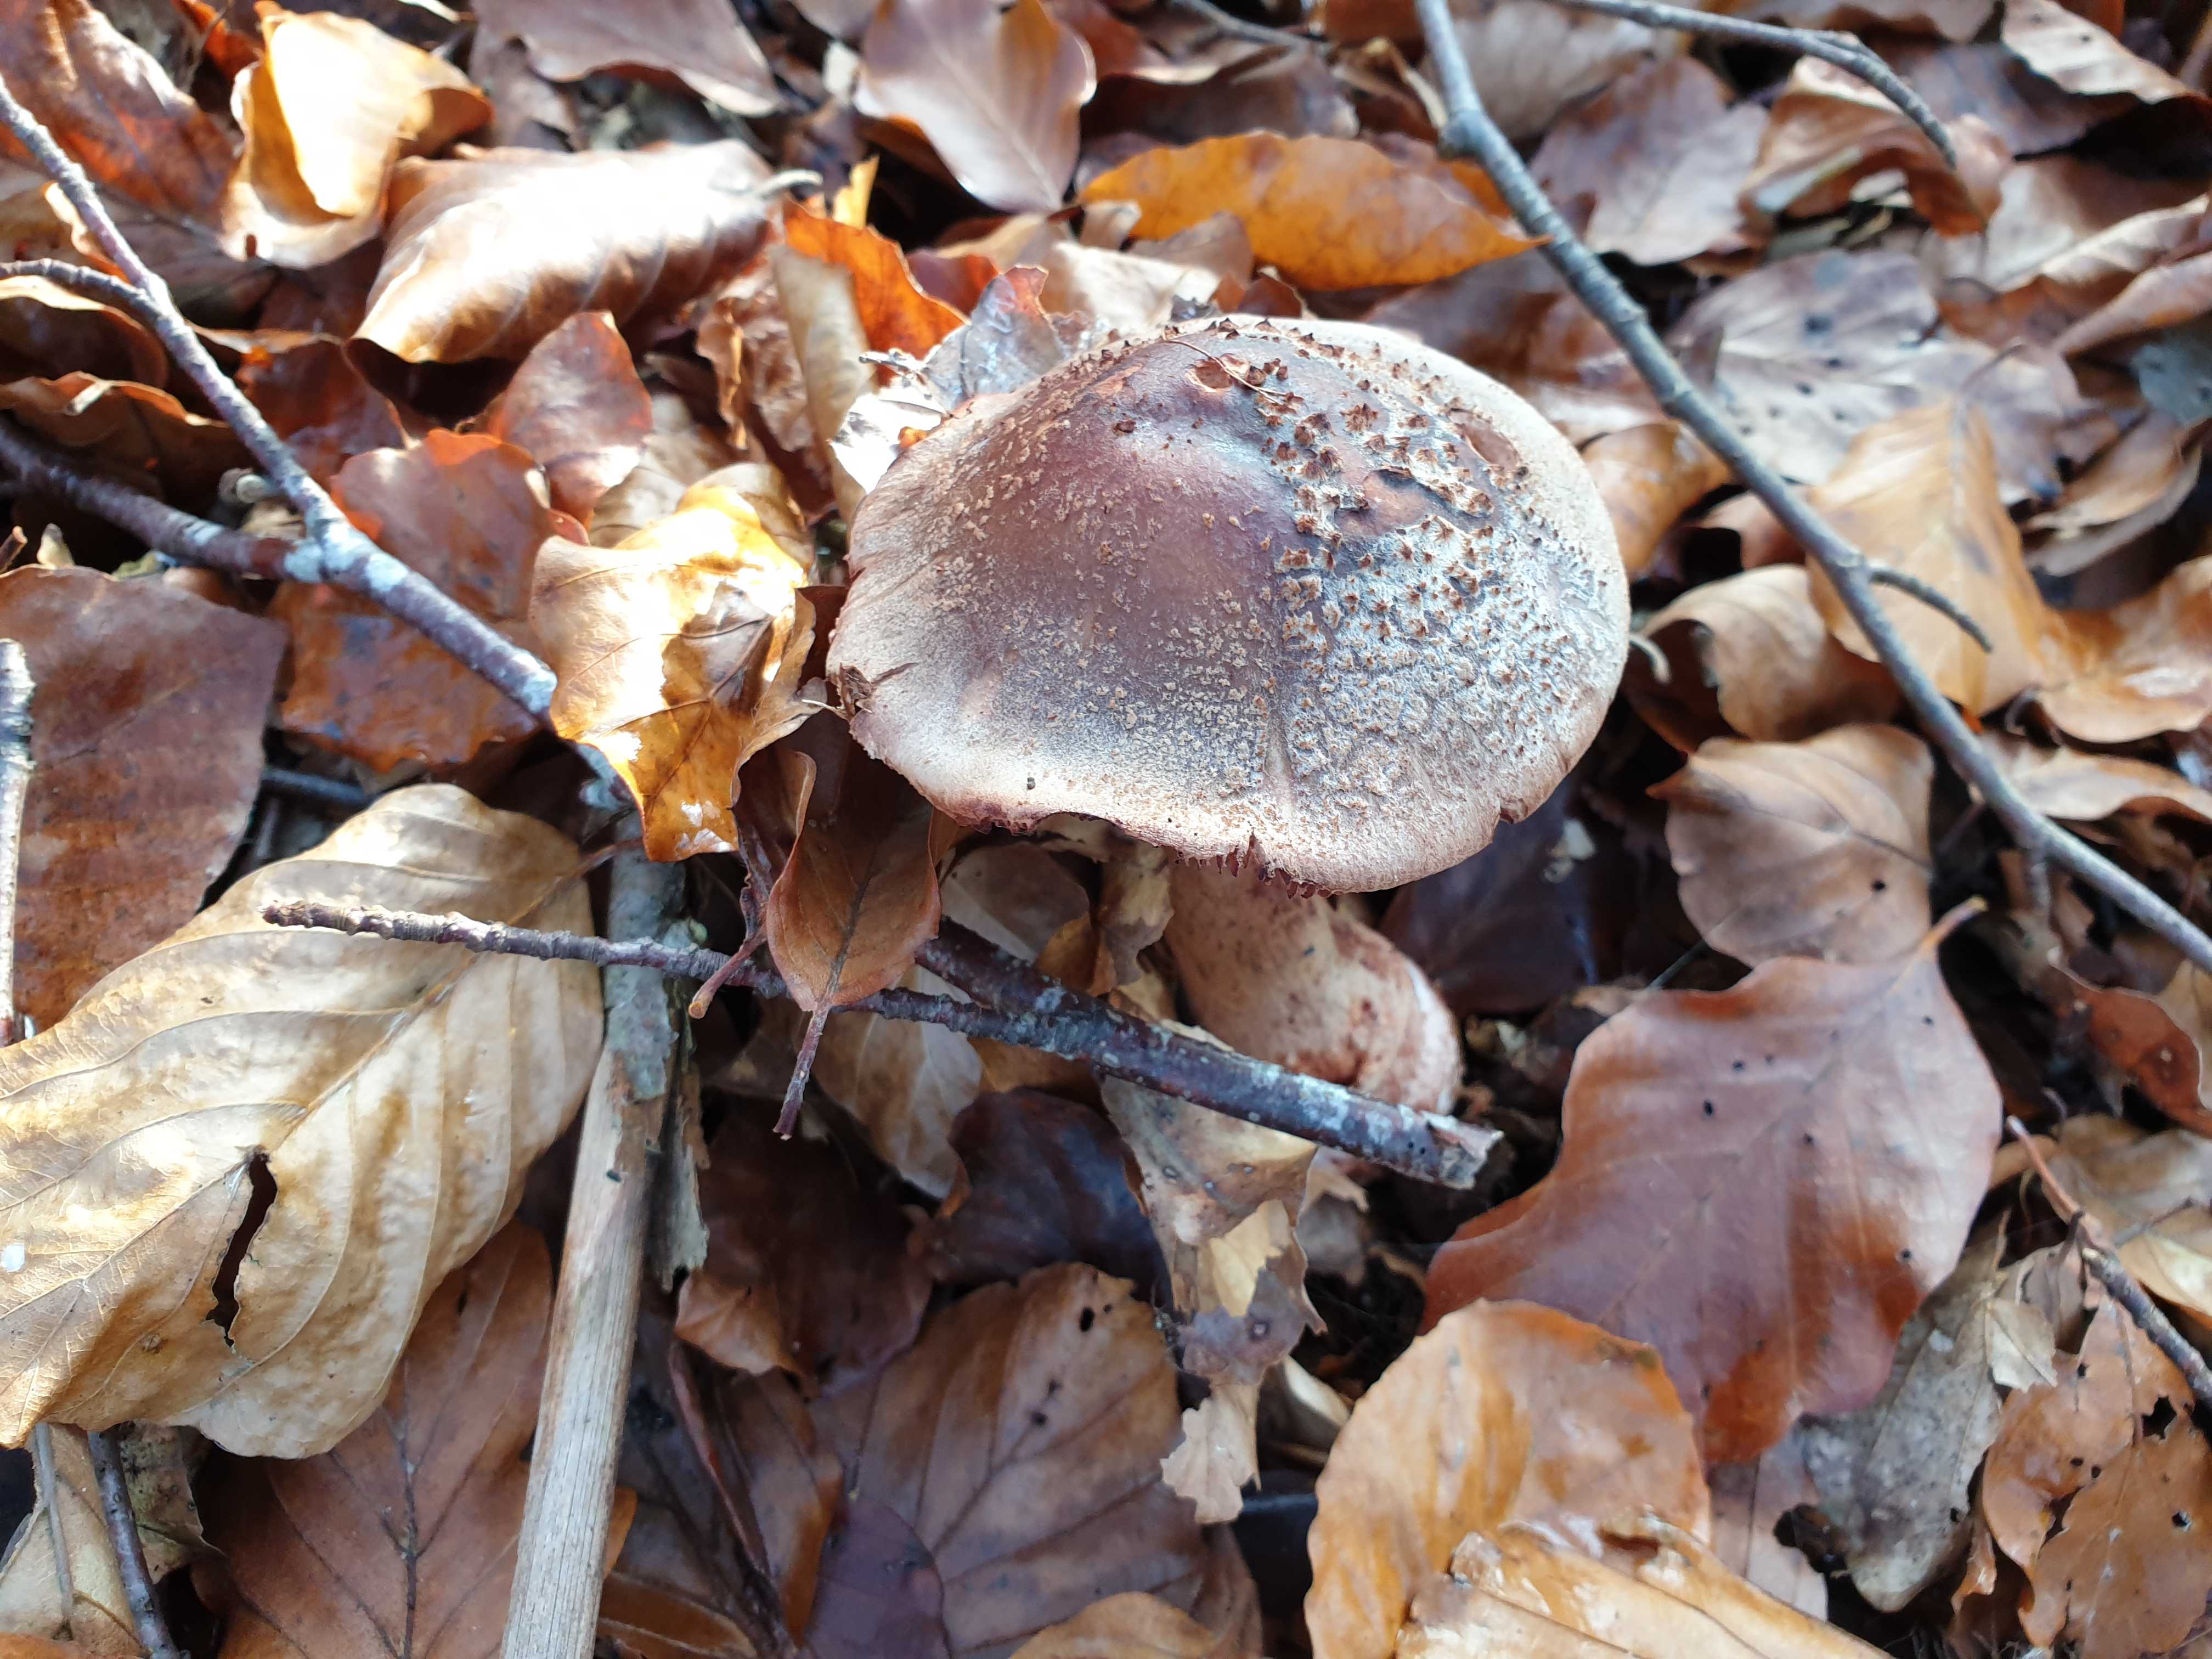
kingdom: Fungi
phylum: Basidiomycota
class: Agaricomycetes
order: Agaricales
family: Amanitaceae
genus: Amanita
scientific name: Amanita rubescens
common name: rødmende fluesvamp
